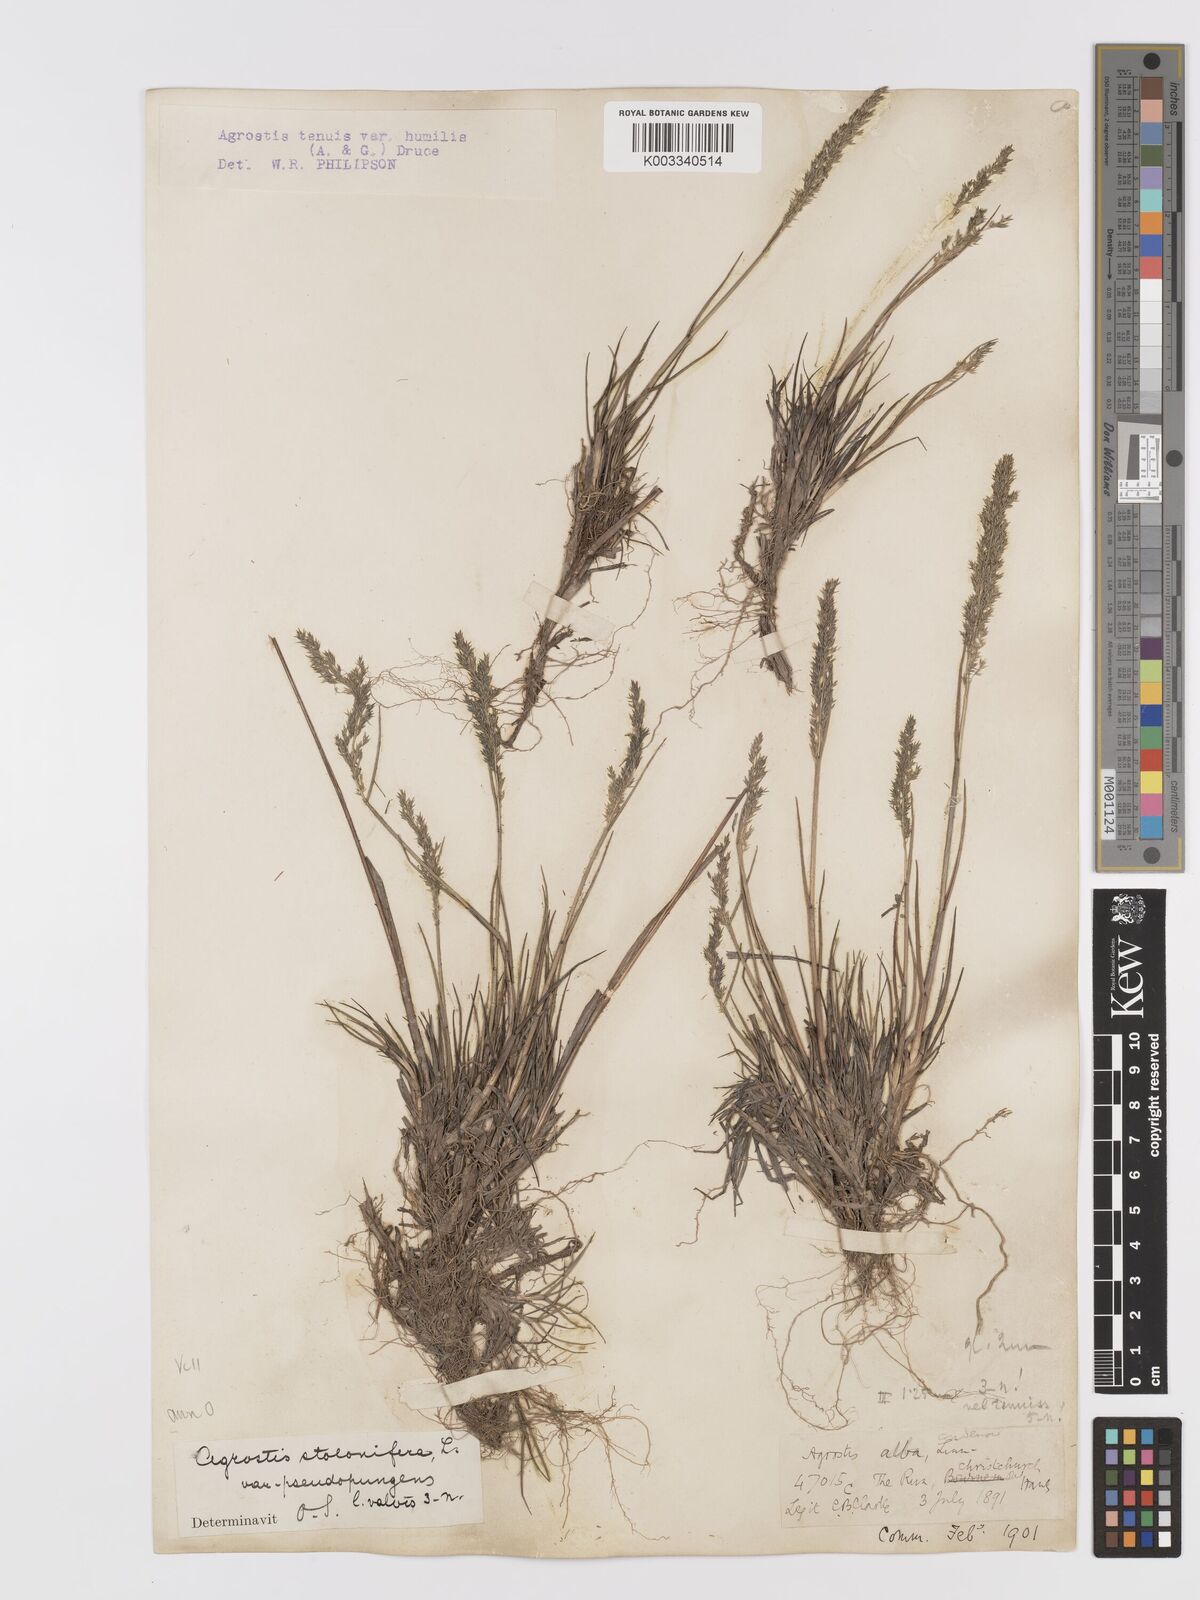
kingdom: Plantae
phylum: Tracheophyta
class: Liliopsida
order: Poales
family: Poaceae
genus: Agrostis
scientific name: Agrostis capillaris
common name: Colonial bentgrass
